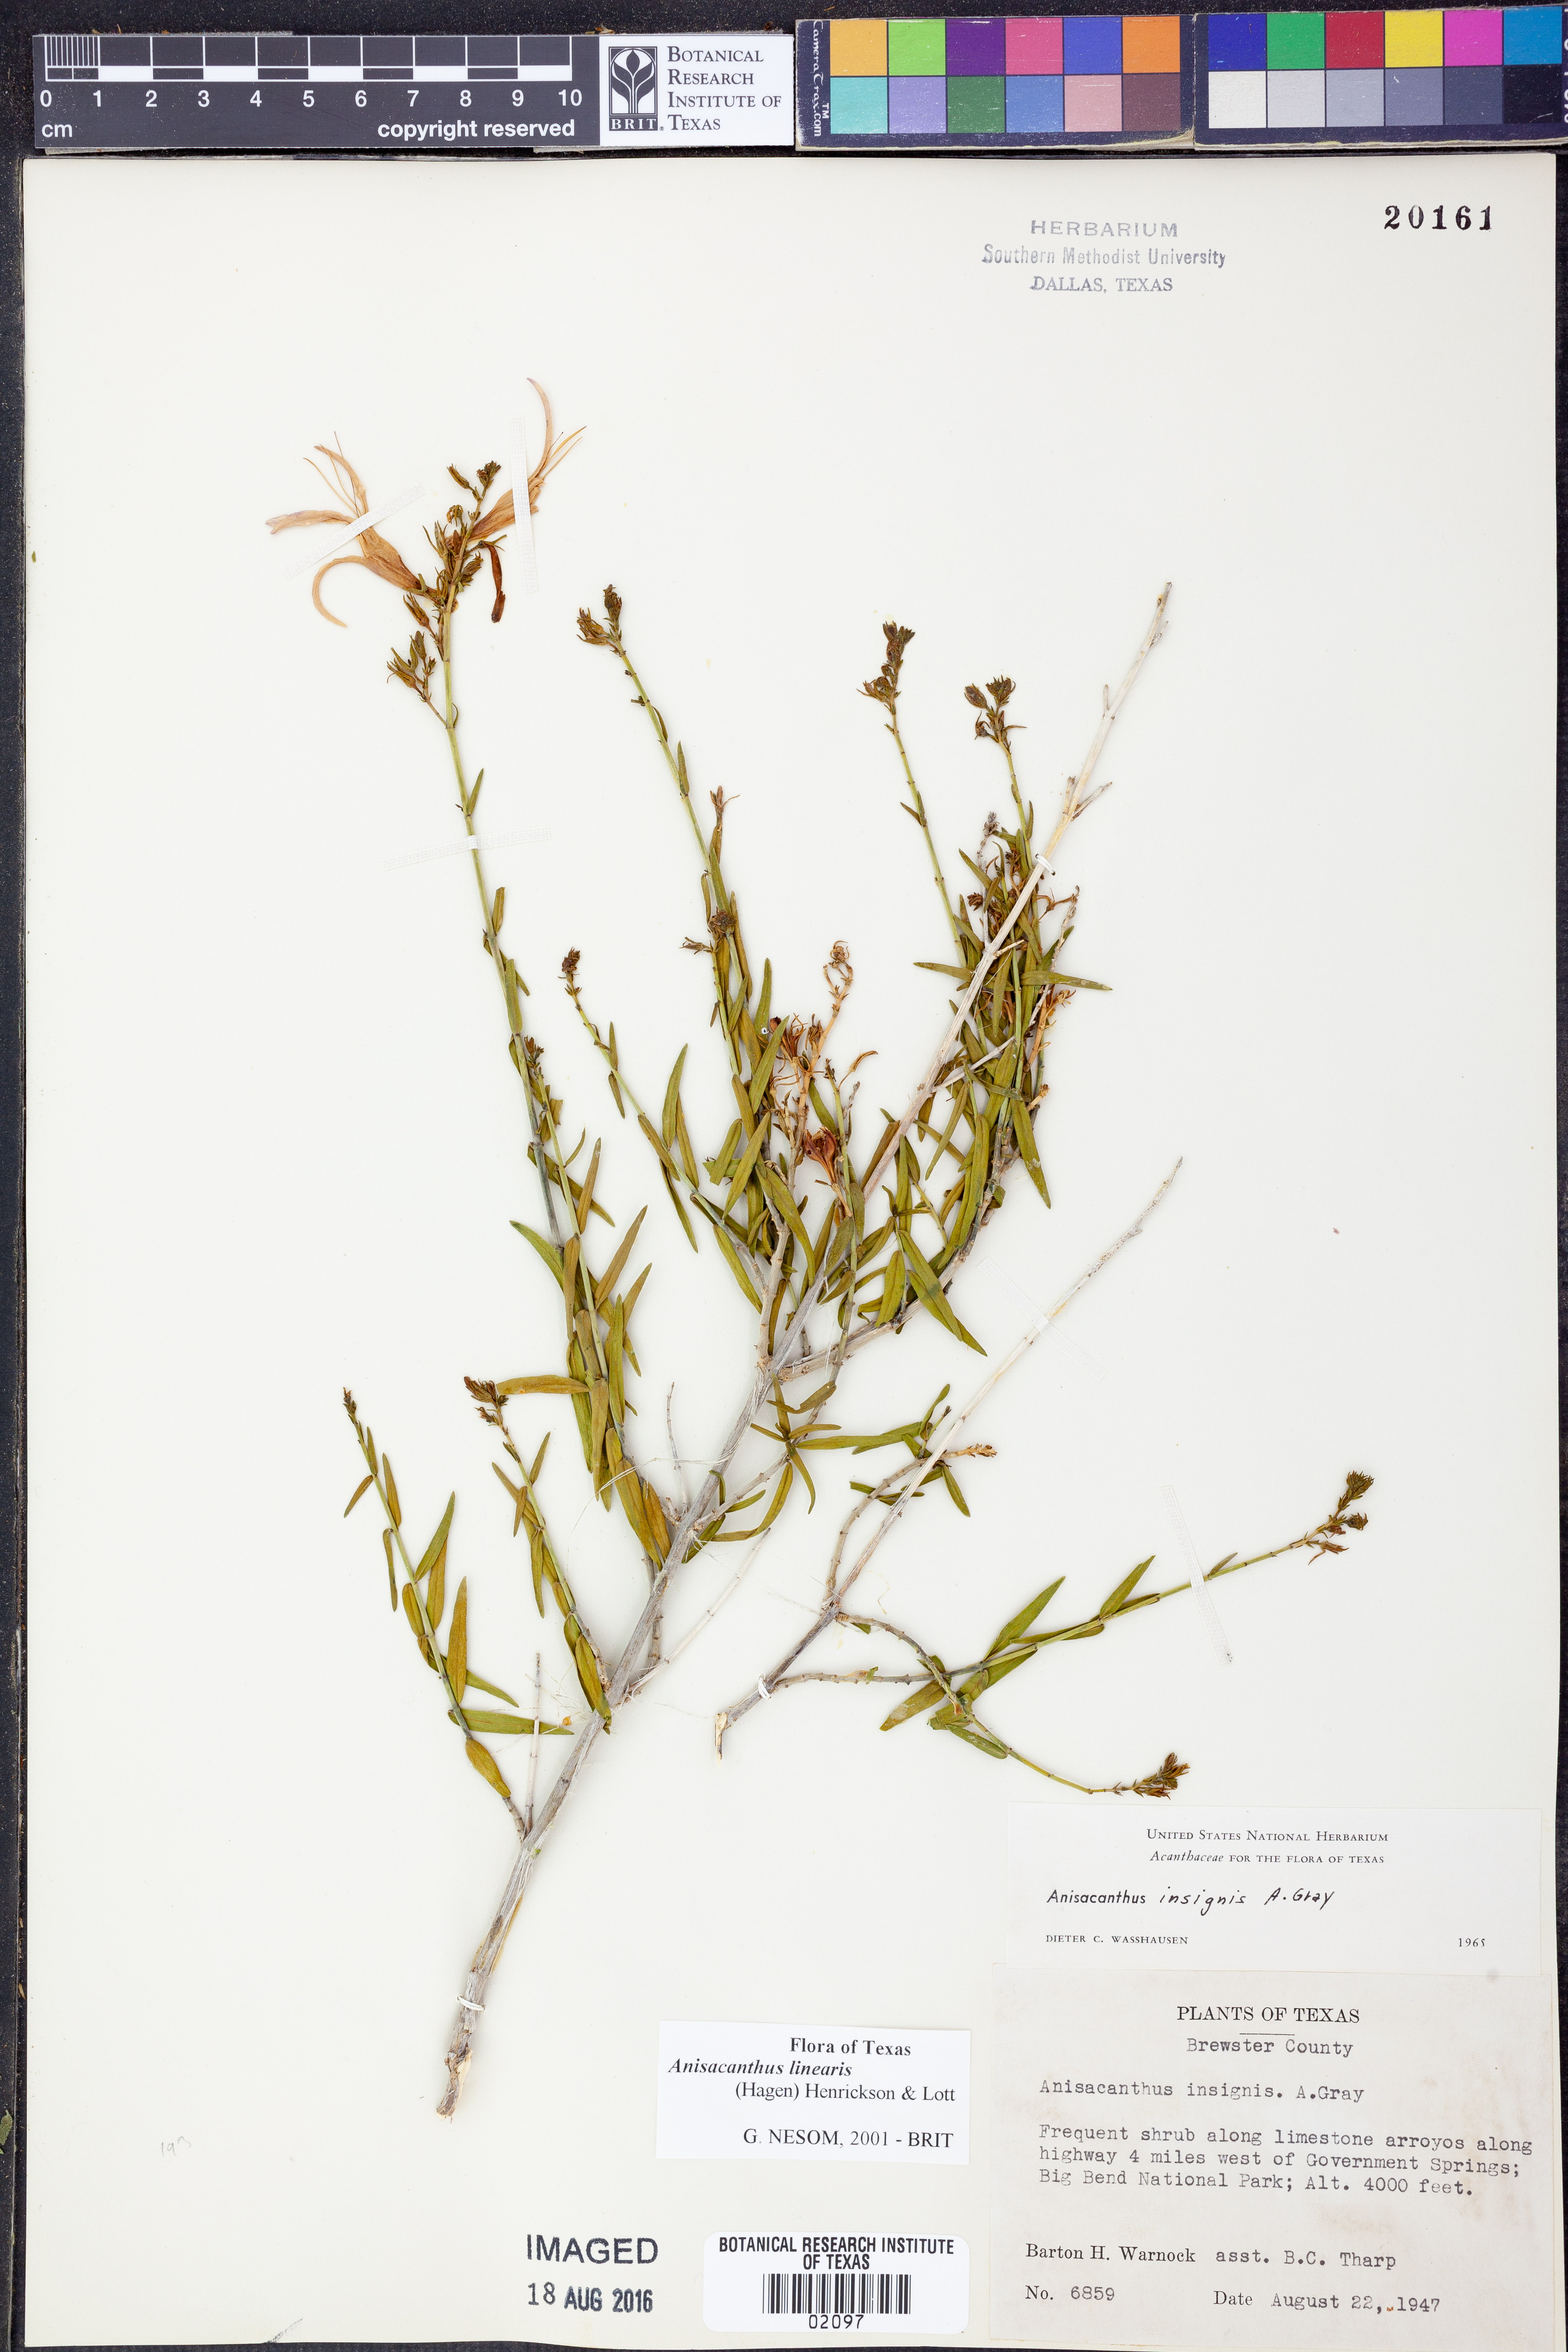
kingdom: Plantae
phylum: Tracheophyta
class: Magnoliopsida
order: Lamiales
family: Acanthaceae
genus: Anisacanthus
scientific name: Anisacanthus linearis
